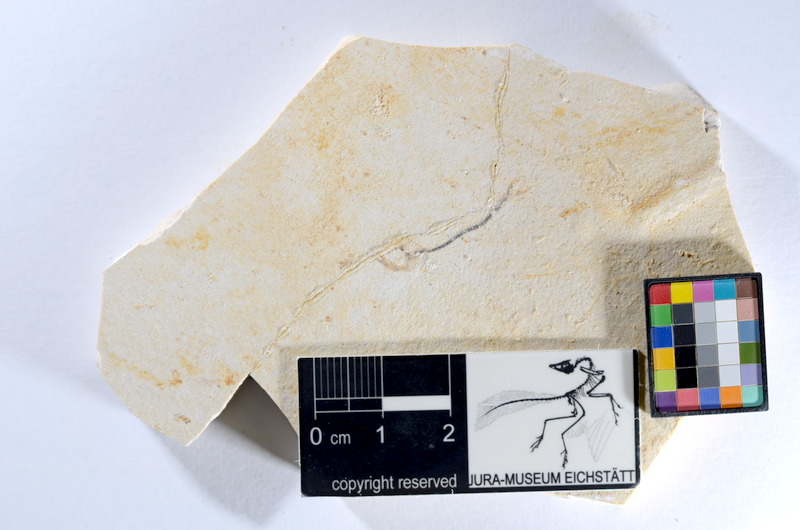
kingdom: Animalia
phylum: Chordata
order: Salmoniformes
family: Orthogonikleithridae
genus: Orthogonikleithrus
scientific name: Orthogonikleithrus hoelli
